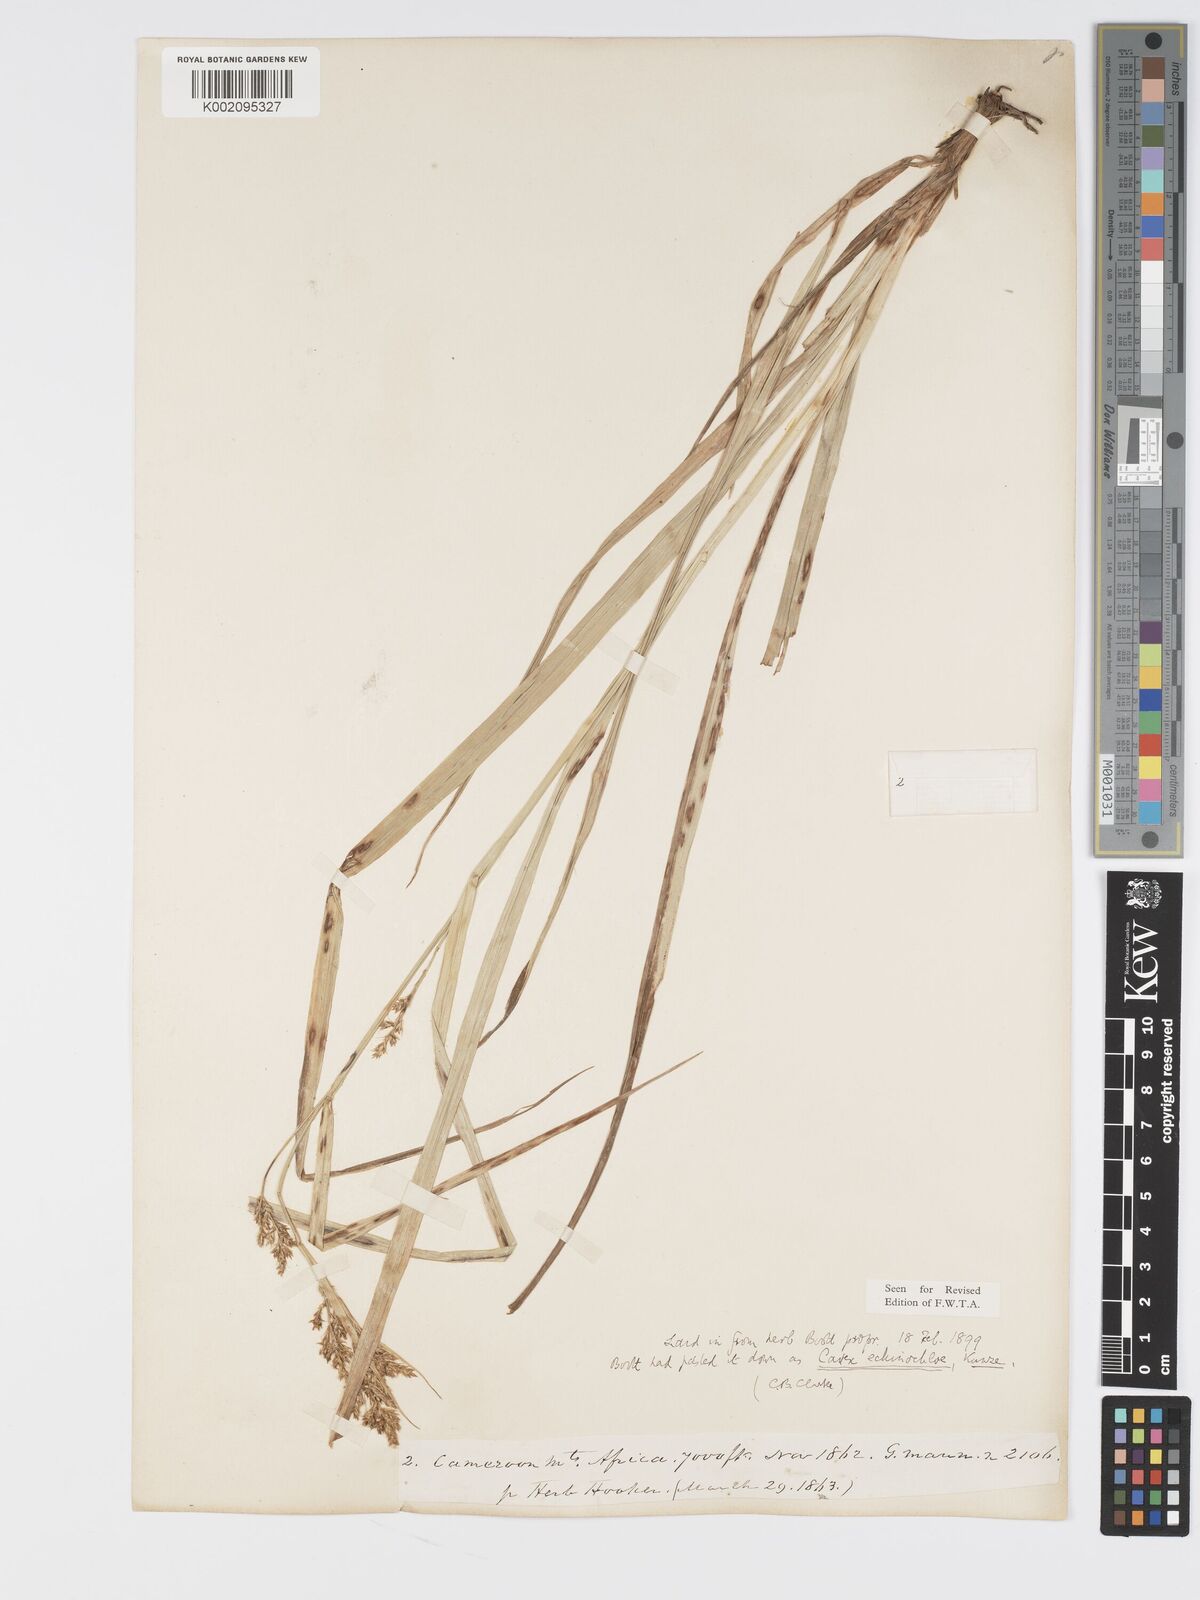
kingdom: Plantae
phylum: Tracheophyta
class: Liliopsida
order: Poales
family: Cyperaceae
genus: Carex
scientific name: Carex echinochloe
